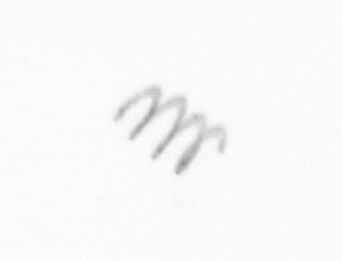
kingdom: Chromista
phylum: Ochrophyta
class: Bacillariophyceae
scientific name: Bacillariophyceae
